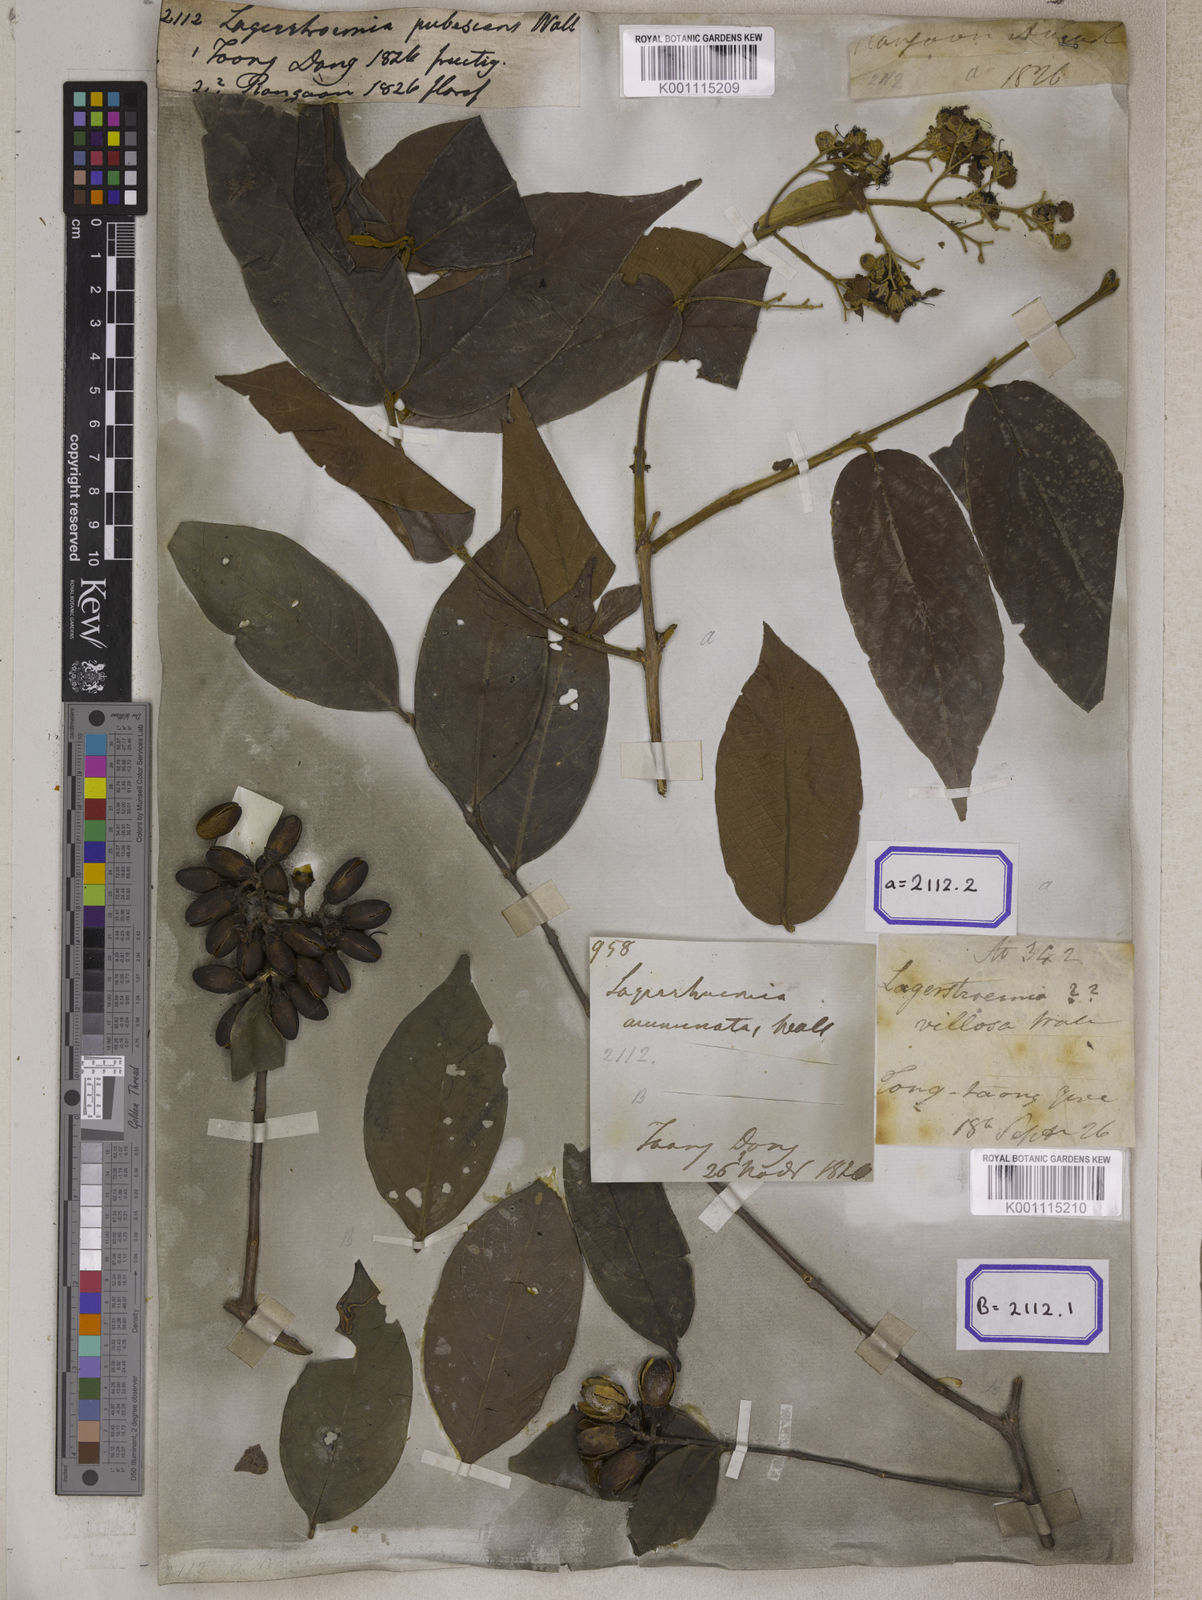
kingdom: Plantae
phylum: Tracheophyta
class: Magnoliopsida
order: Myrtales
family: Lythraceae
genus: Lagerstroemia
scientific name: Lagerstroemia tomentosa
